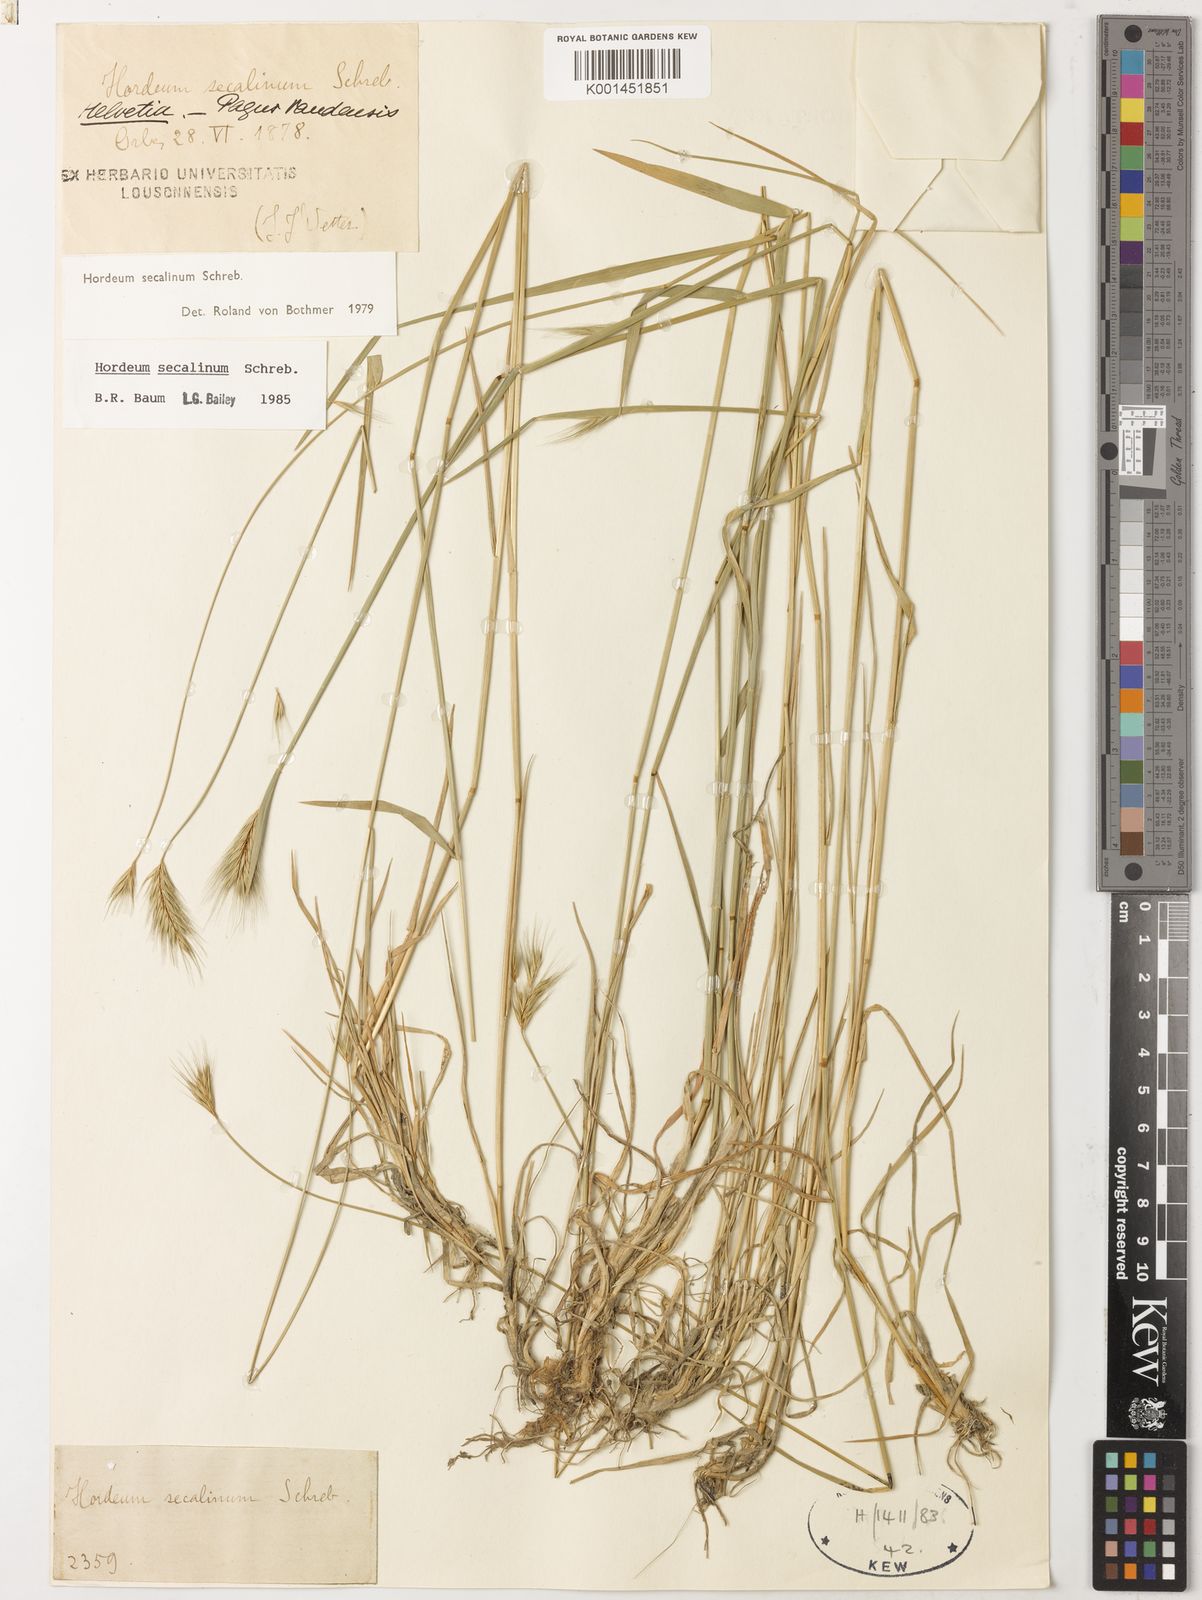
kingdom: Plantae
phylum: Tracheophyta
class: Liliopsida
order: Poales
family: Poaceae
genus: Hordeum
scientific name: Hordeum secalinum
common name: Meadow barley
